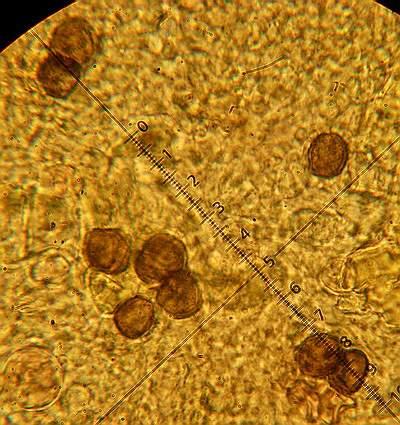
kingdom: Fungi
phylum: Basidiomycota
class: Tremellomycetes
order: Tremellales
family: Exidiaceae
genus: Exidiopsis
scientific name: Exidiopsis effusa
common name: smuk bævrehinde
